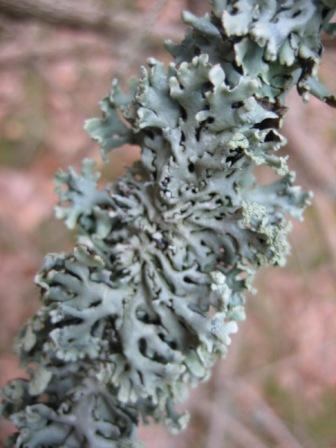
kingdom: Fungi
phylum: Ascomycota
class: Lecanoromycetes
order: Lecanorales
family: Parmeliaceae
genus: Hypogymnia
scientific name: Hypogymnia physodes
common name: almindelig kvistlav
